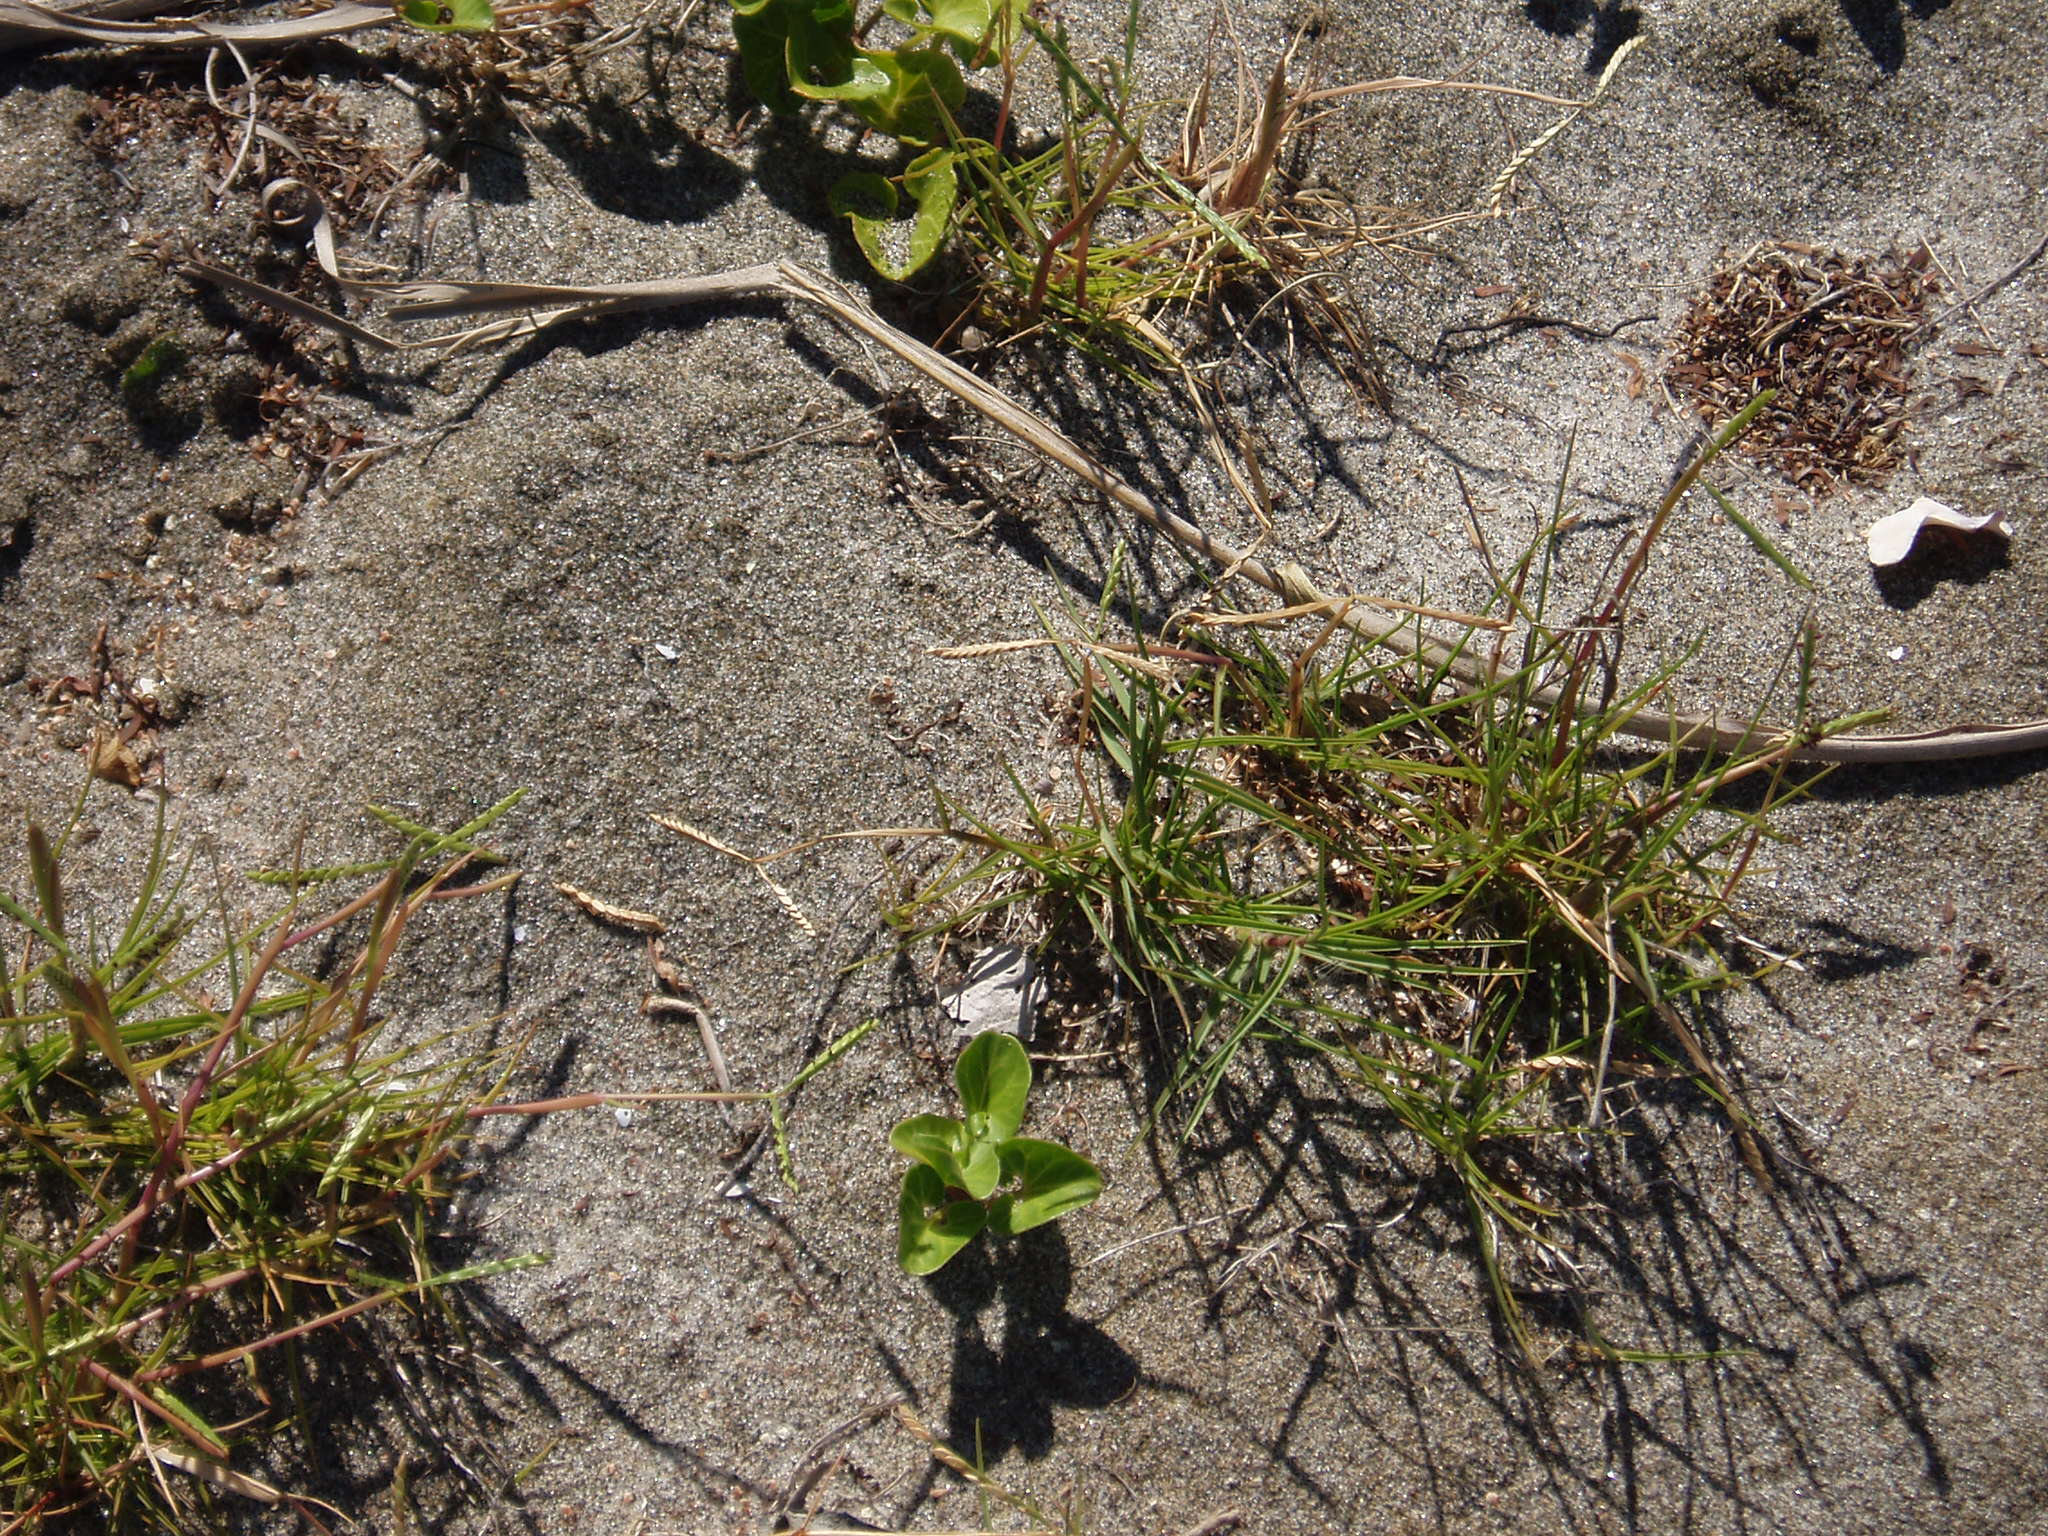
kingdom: Plantae
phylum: Tracheophyta
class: Liliopsida
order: Poales
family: Poaceae
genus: Paspalum
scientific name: Paspalum vaginatum
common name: Seashore paspalum
